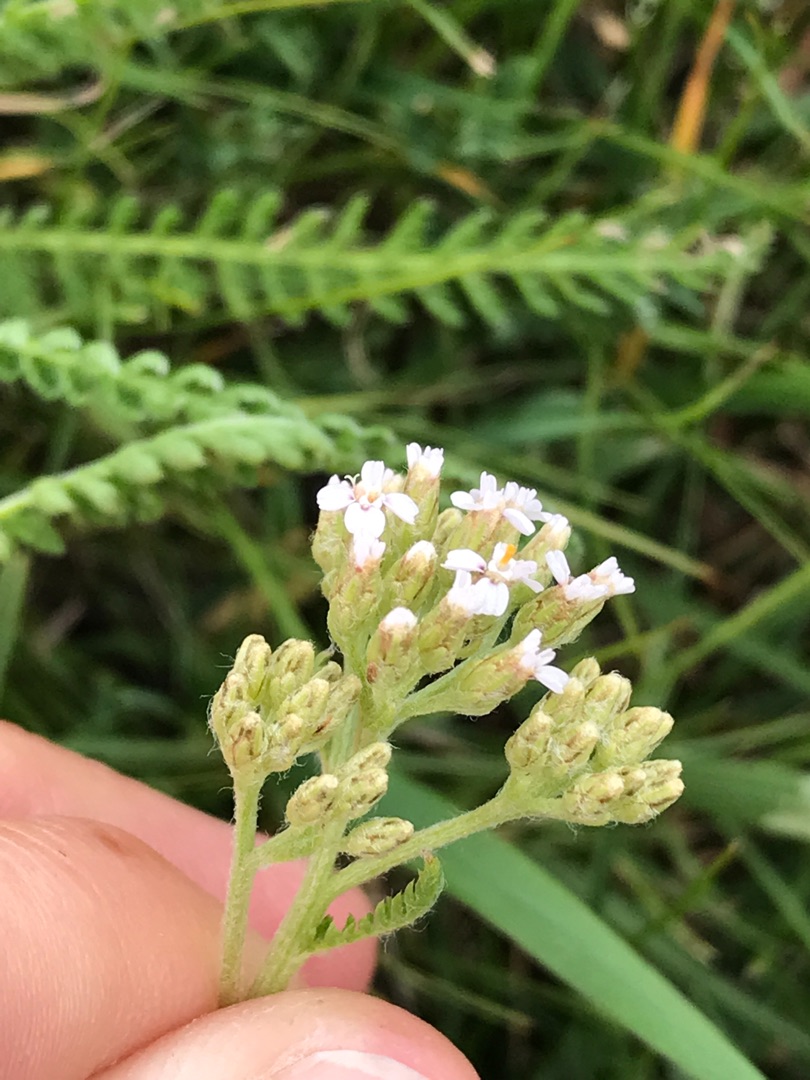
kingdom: Plantae
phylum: Tracheophyta
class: Magnoliopsida
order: Asterales
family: Asteraceae
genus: Achillea
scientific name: Achillea millefolium
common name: Almindelig røllike
